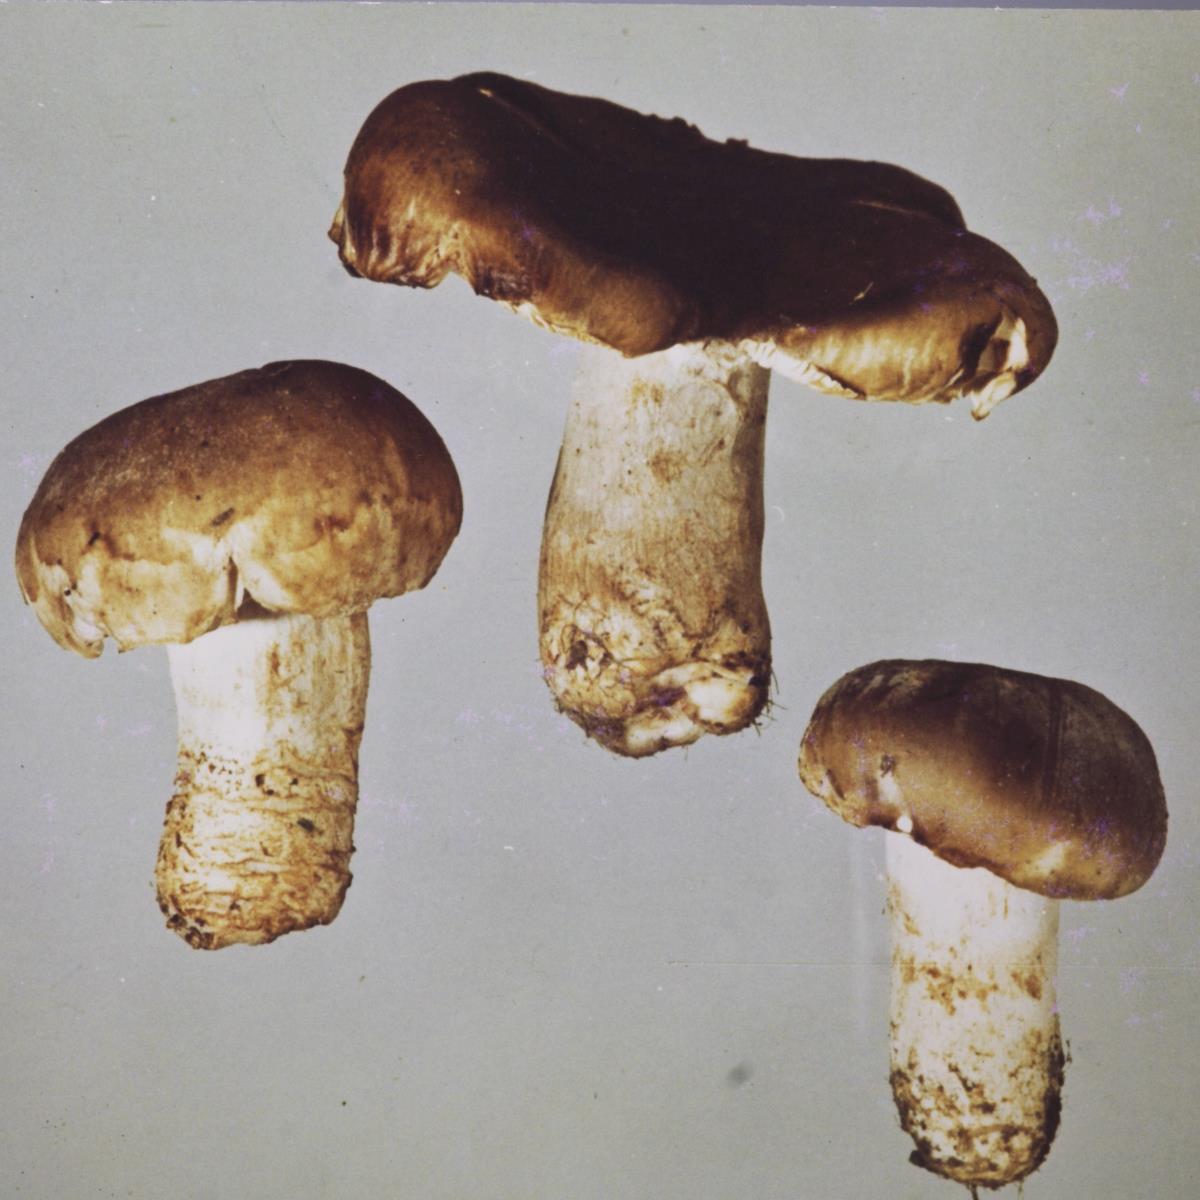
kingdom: Fungi
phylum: Basidiomycota
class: Agaricomycetes
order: Russulales
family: Russulaceae
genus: Russula
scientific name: Russula amoenolens
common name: Camembert brittlegill
